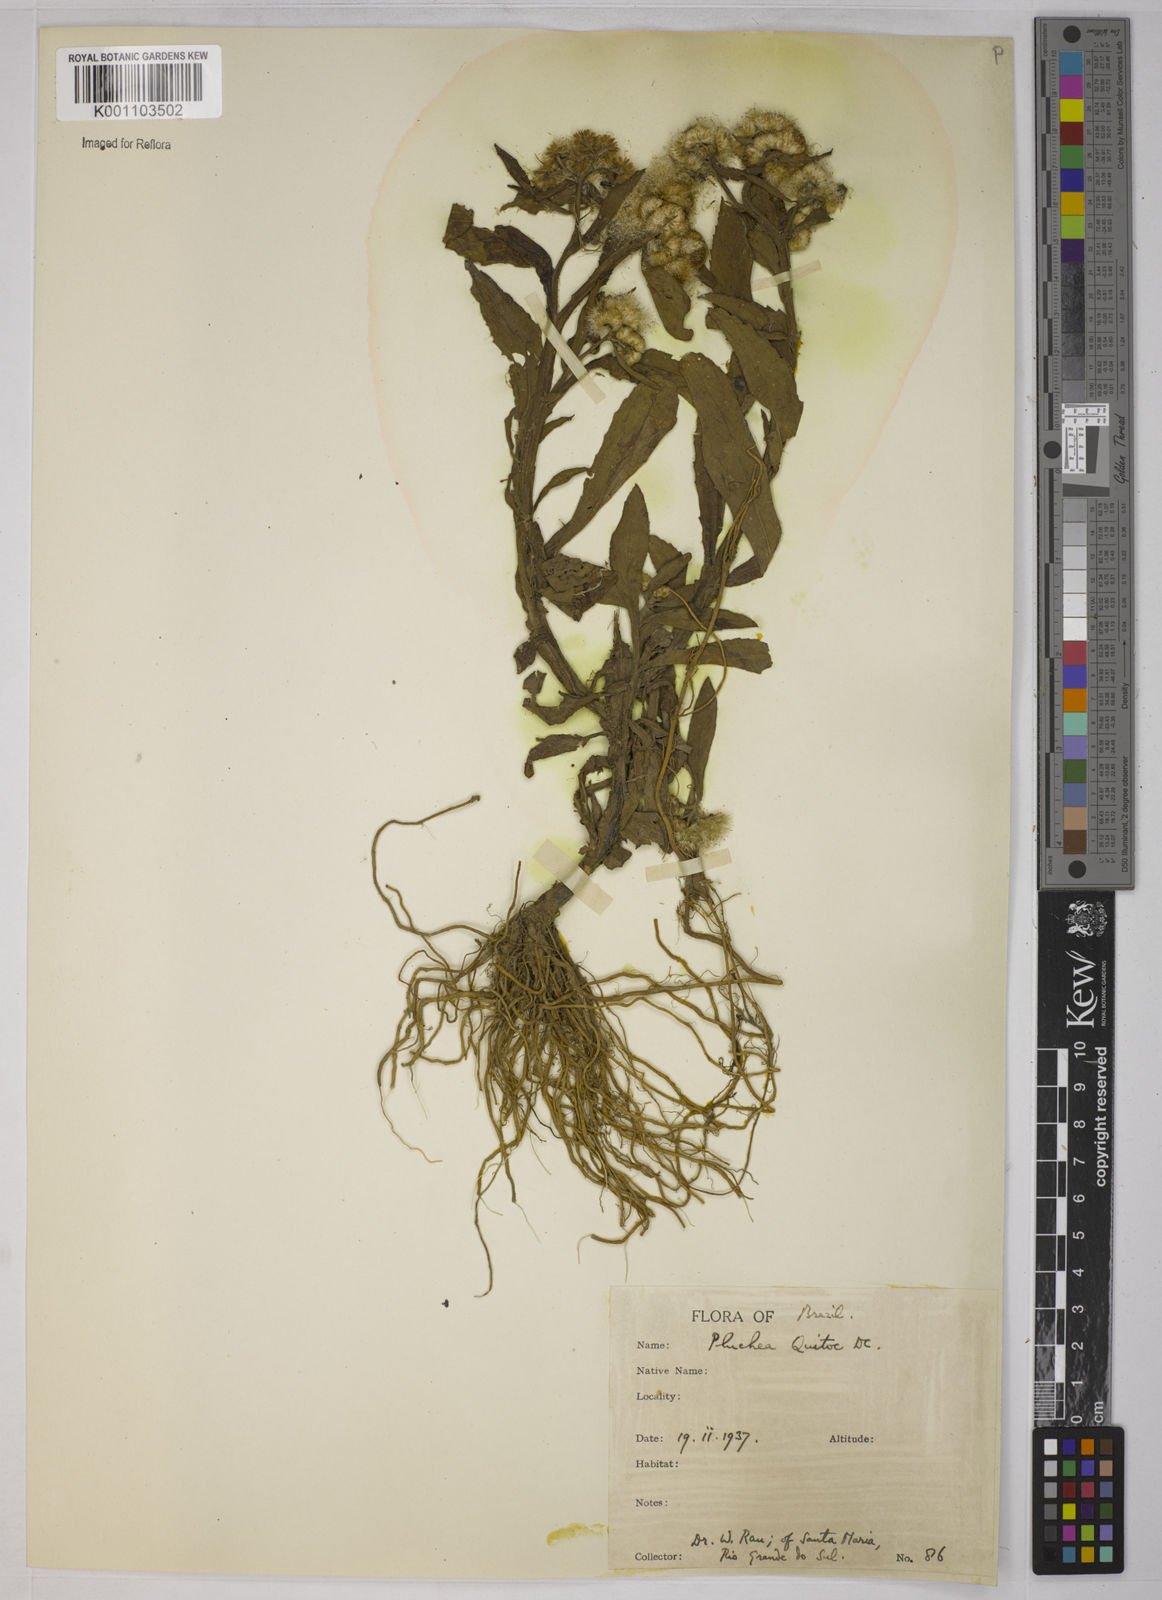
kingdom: Plantae
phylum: Tracheophyta
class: Magnoliopsida
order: Asterales
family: Asteraceae
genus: Pluchea
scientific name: Pluchea sagittalis
